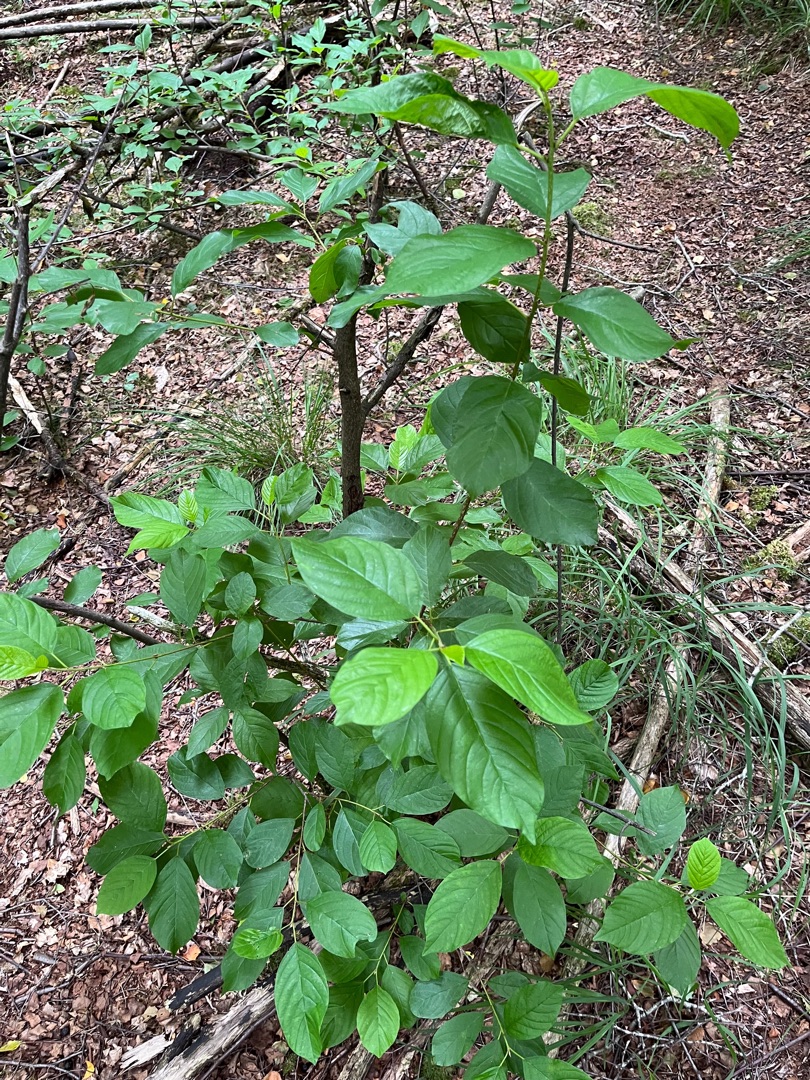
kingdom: Plantae
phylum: Tracheophyta
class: Magnoliopsida
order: Rosales
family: Rhamnaceae
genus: Frangula
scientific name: Frangula alnus
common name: Tørst
